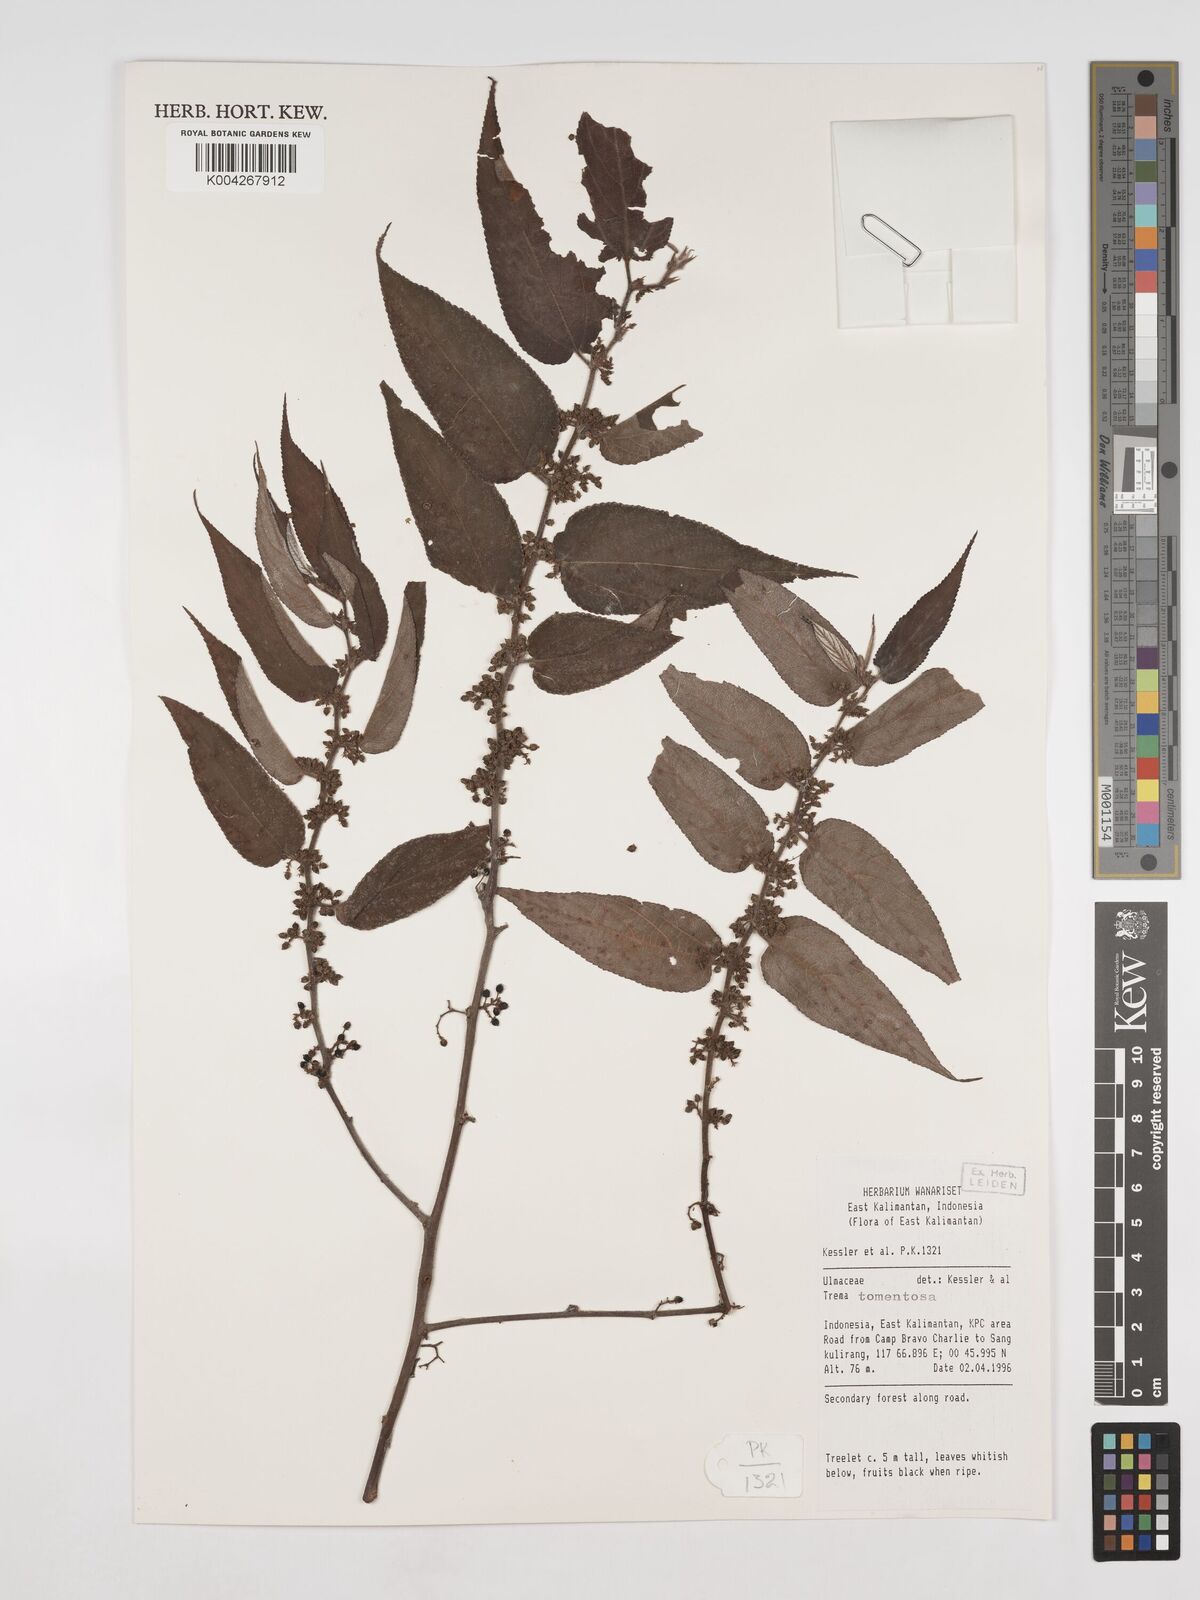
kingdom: Plantae
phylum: Tracheophyta
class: Magnoliopsida
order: Rosales
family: Cannabaceae
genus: Trema
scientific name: Trema tomentosum
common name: Peach-leaf-poisonbush
